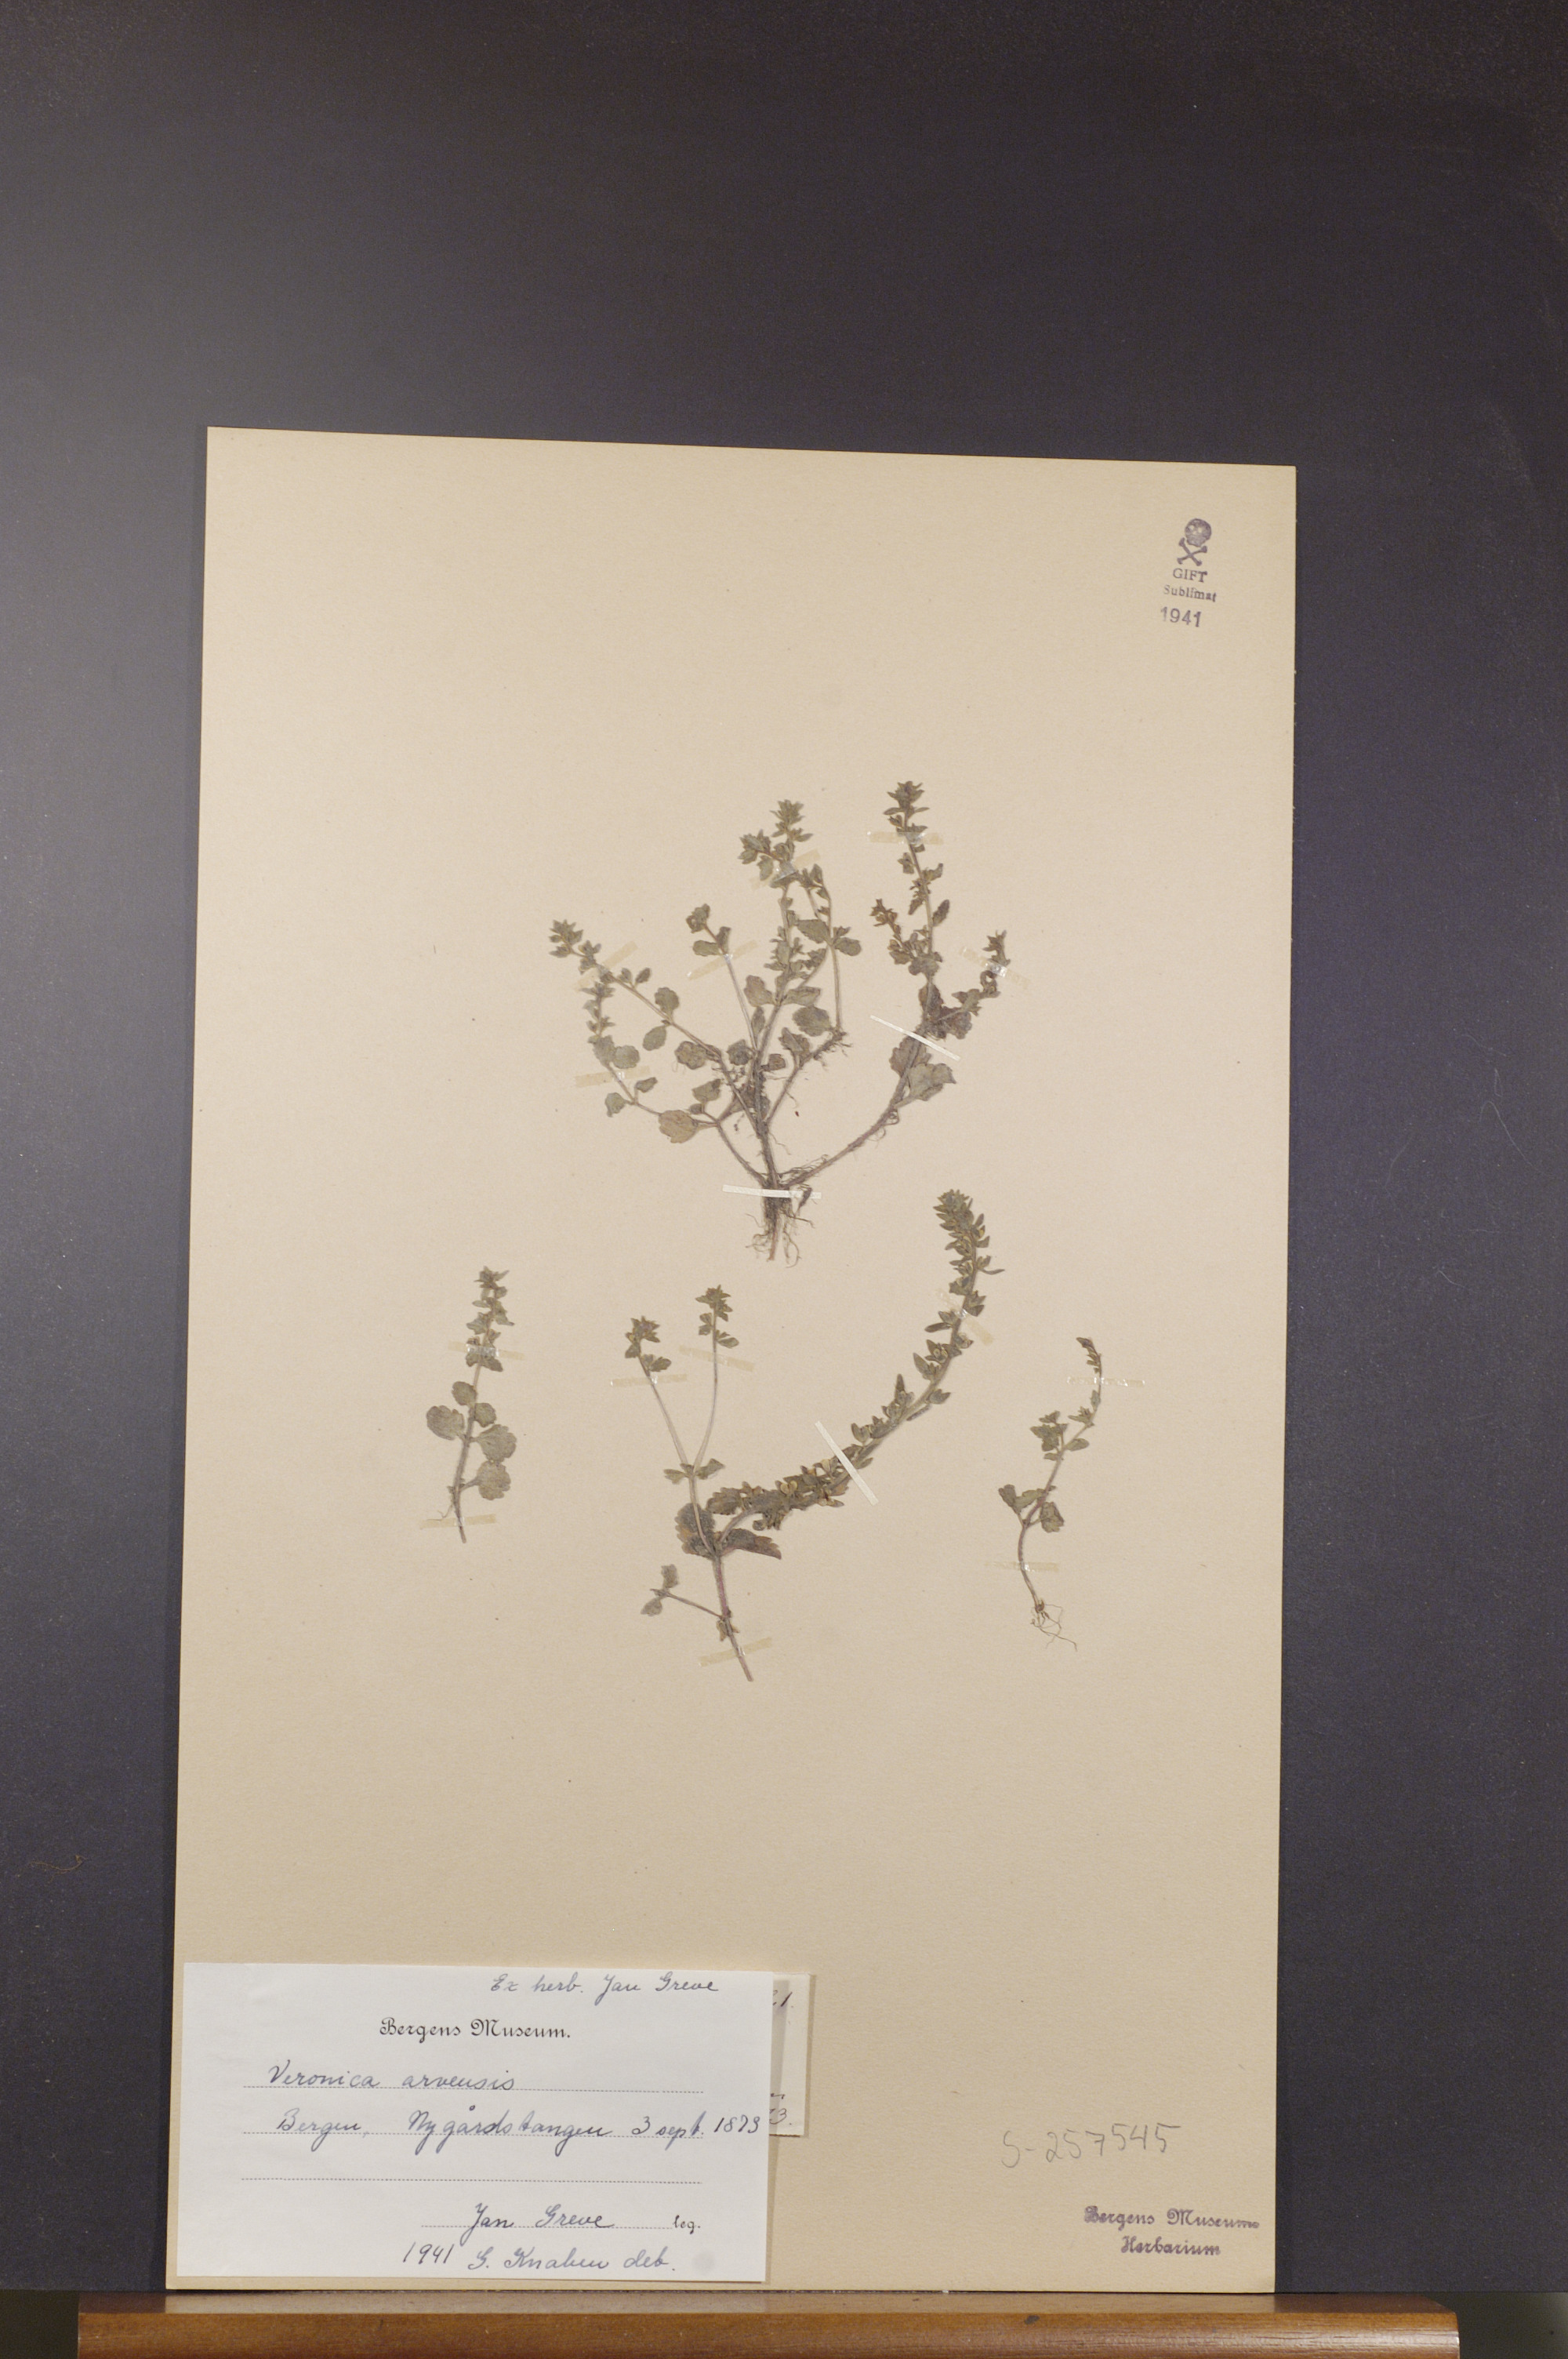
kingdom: Plantae
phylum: Tracheophyta
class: Magnoliopsida
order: Lamiales
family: Plantaginaceae
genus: Veronica
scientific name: Veronica arvensis
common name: Corn speedwell
